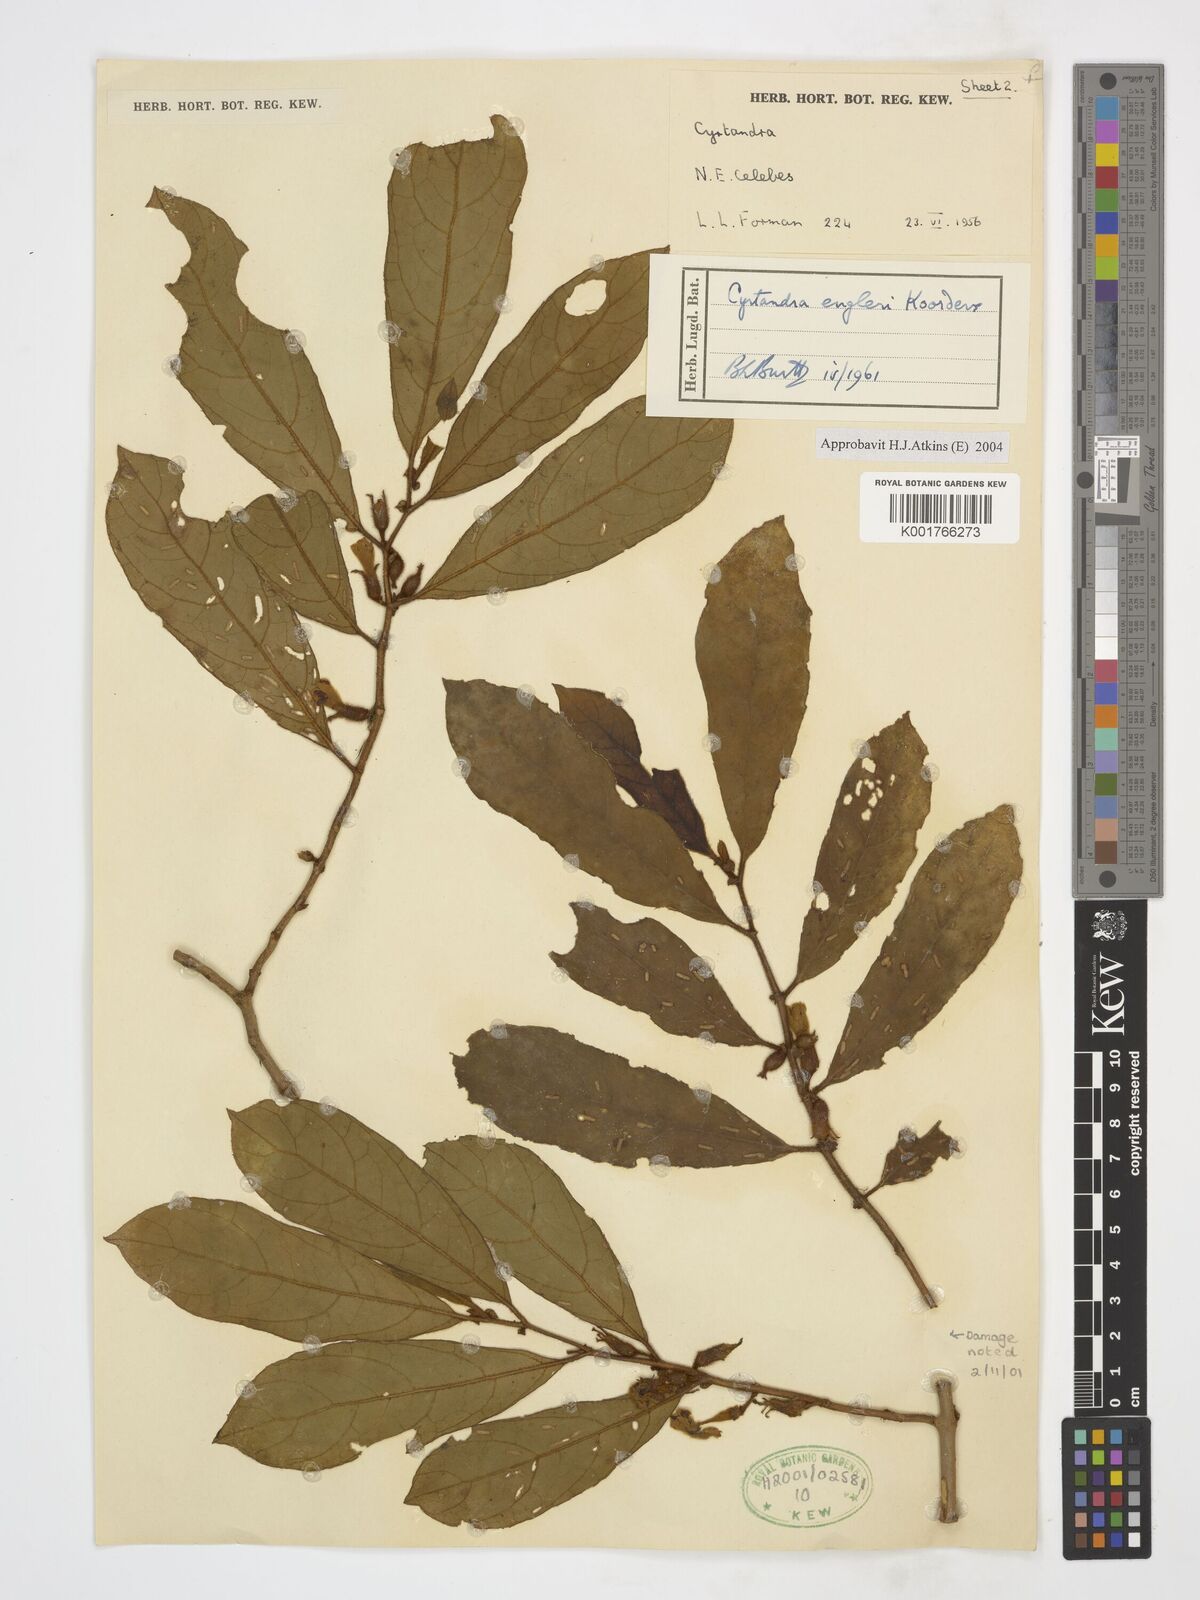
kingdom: Plantae
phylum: Tracheophyta
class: Magnoliopsida
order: Lamiales
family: Gesneriaceae
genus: Cyrtandra
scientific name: Cyrtandra engleri
